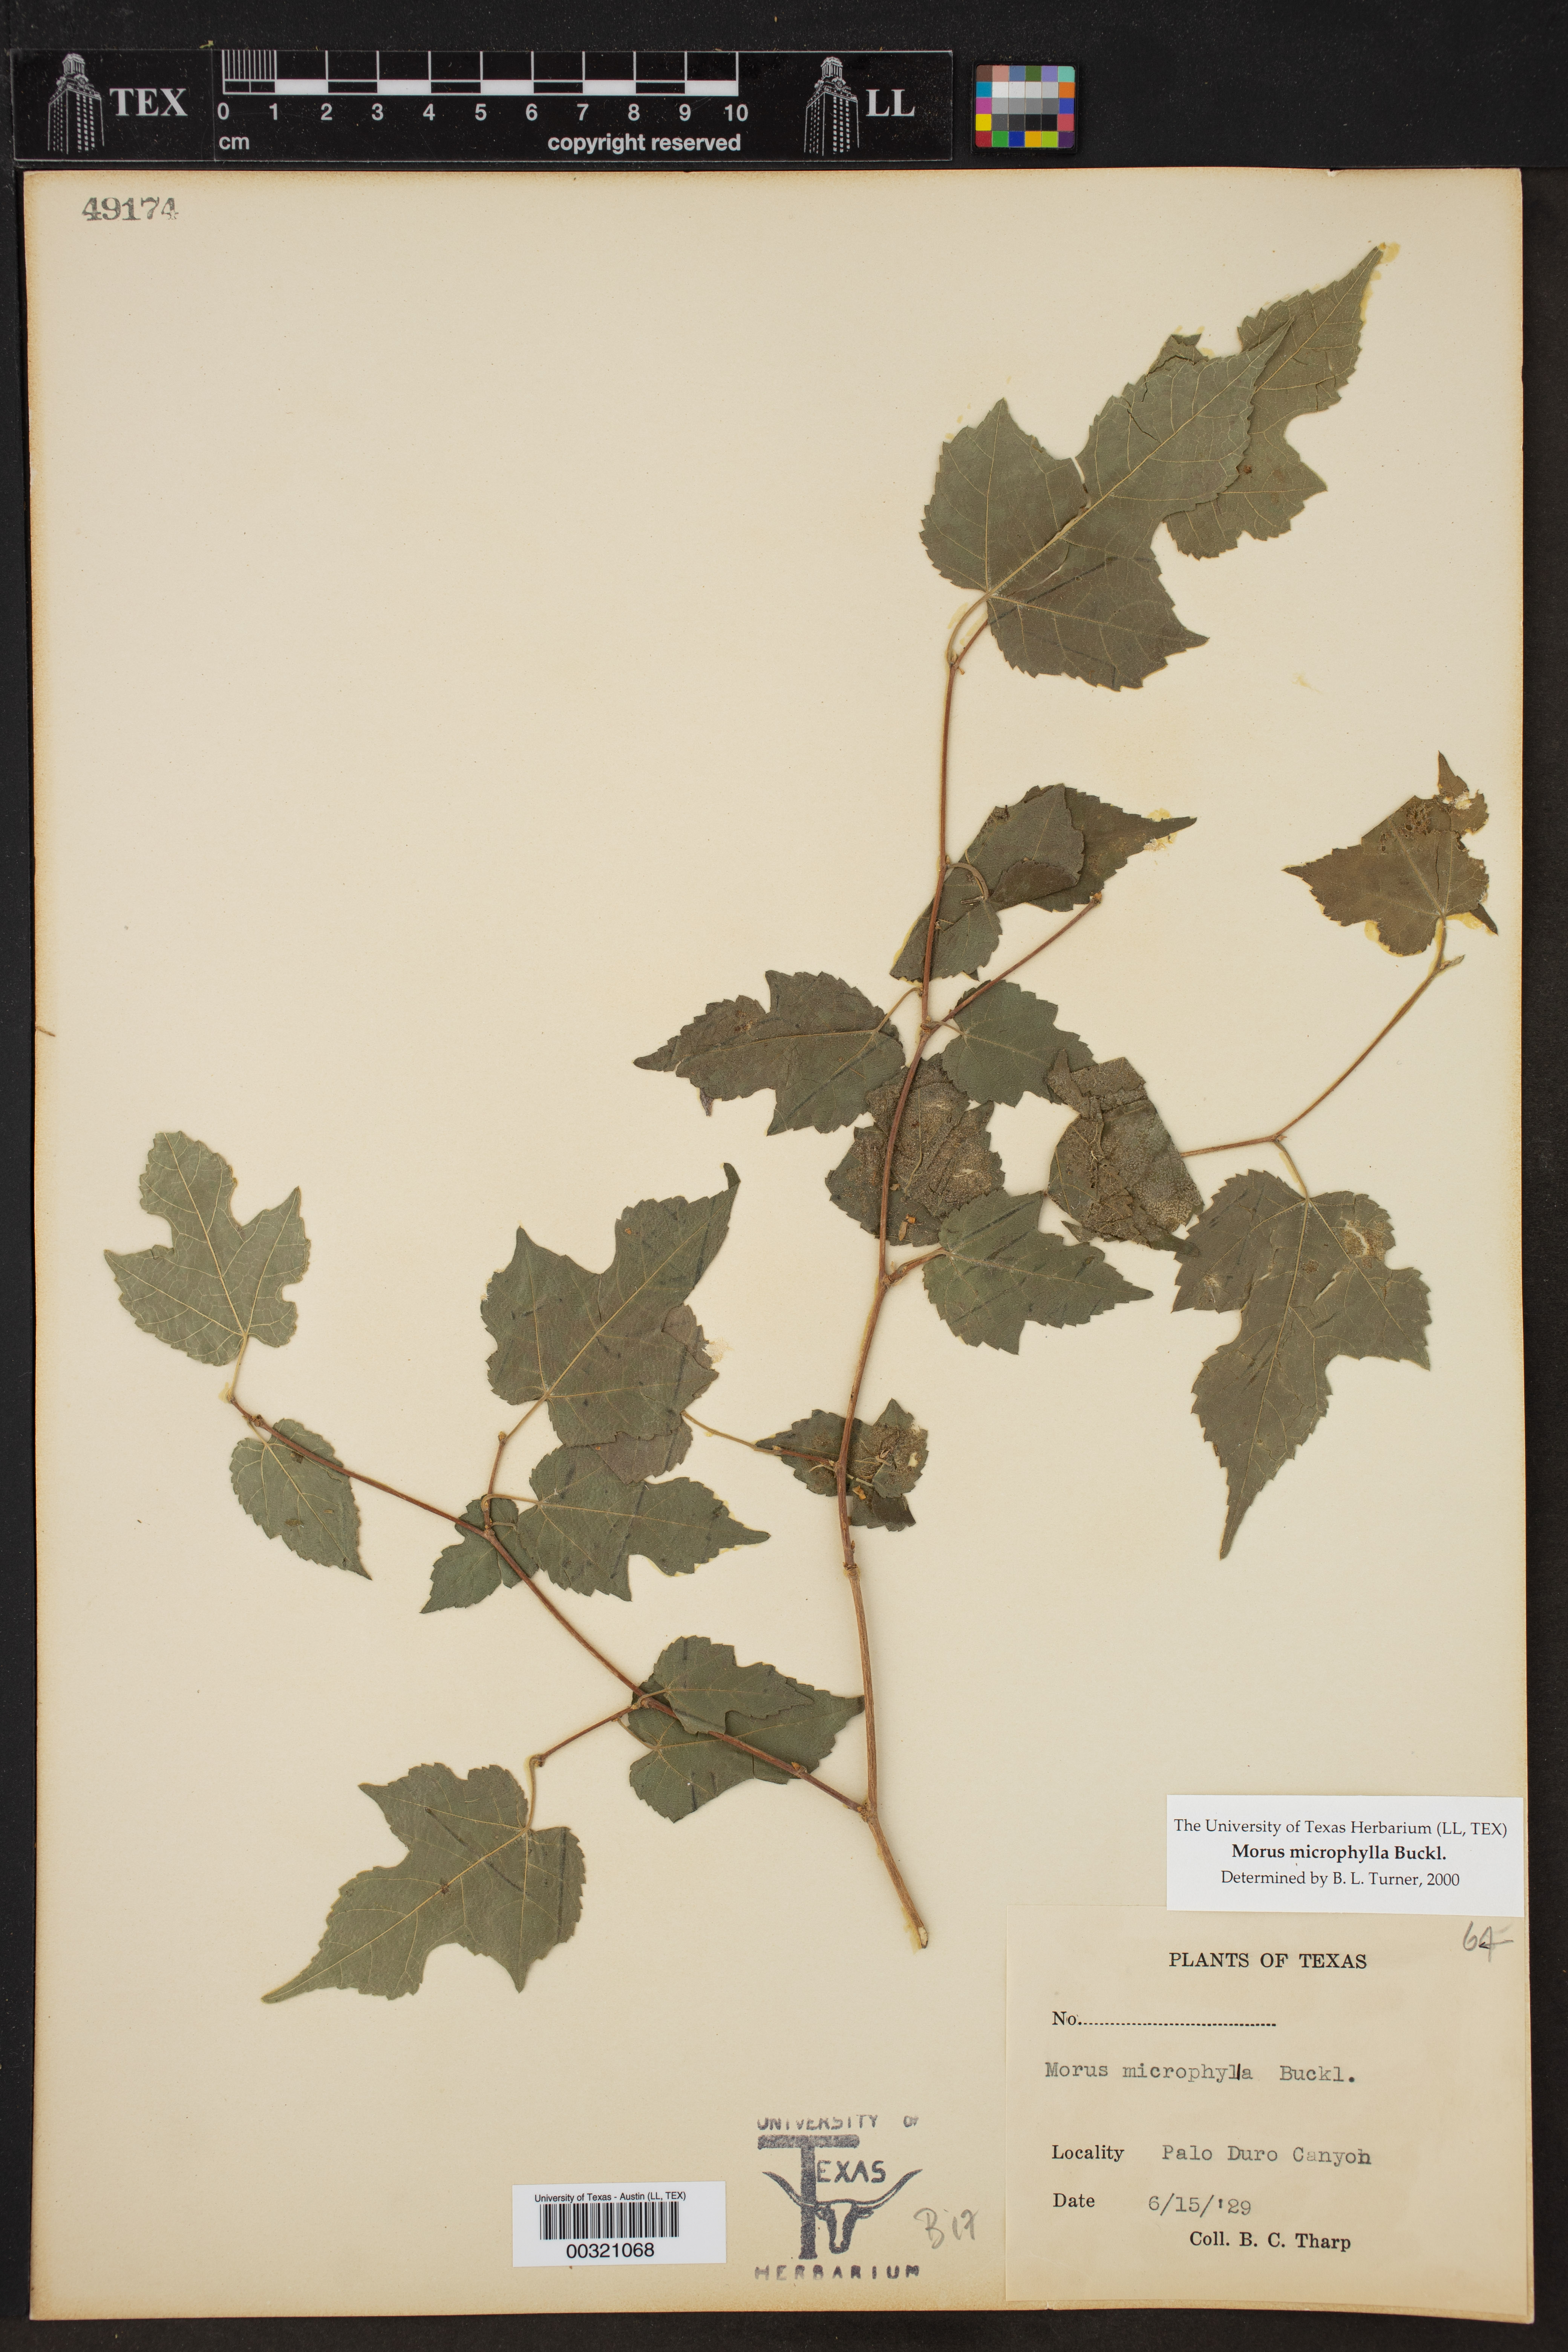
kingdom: Plantae
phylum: Tracheophyta
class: Magnoliopsida
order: Rosales
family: Moraceae
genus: Morus
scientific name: Morus microphylla
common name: Mexican mulberry
